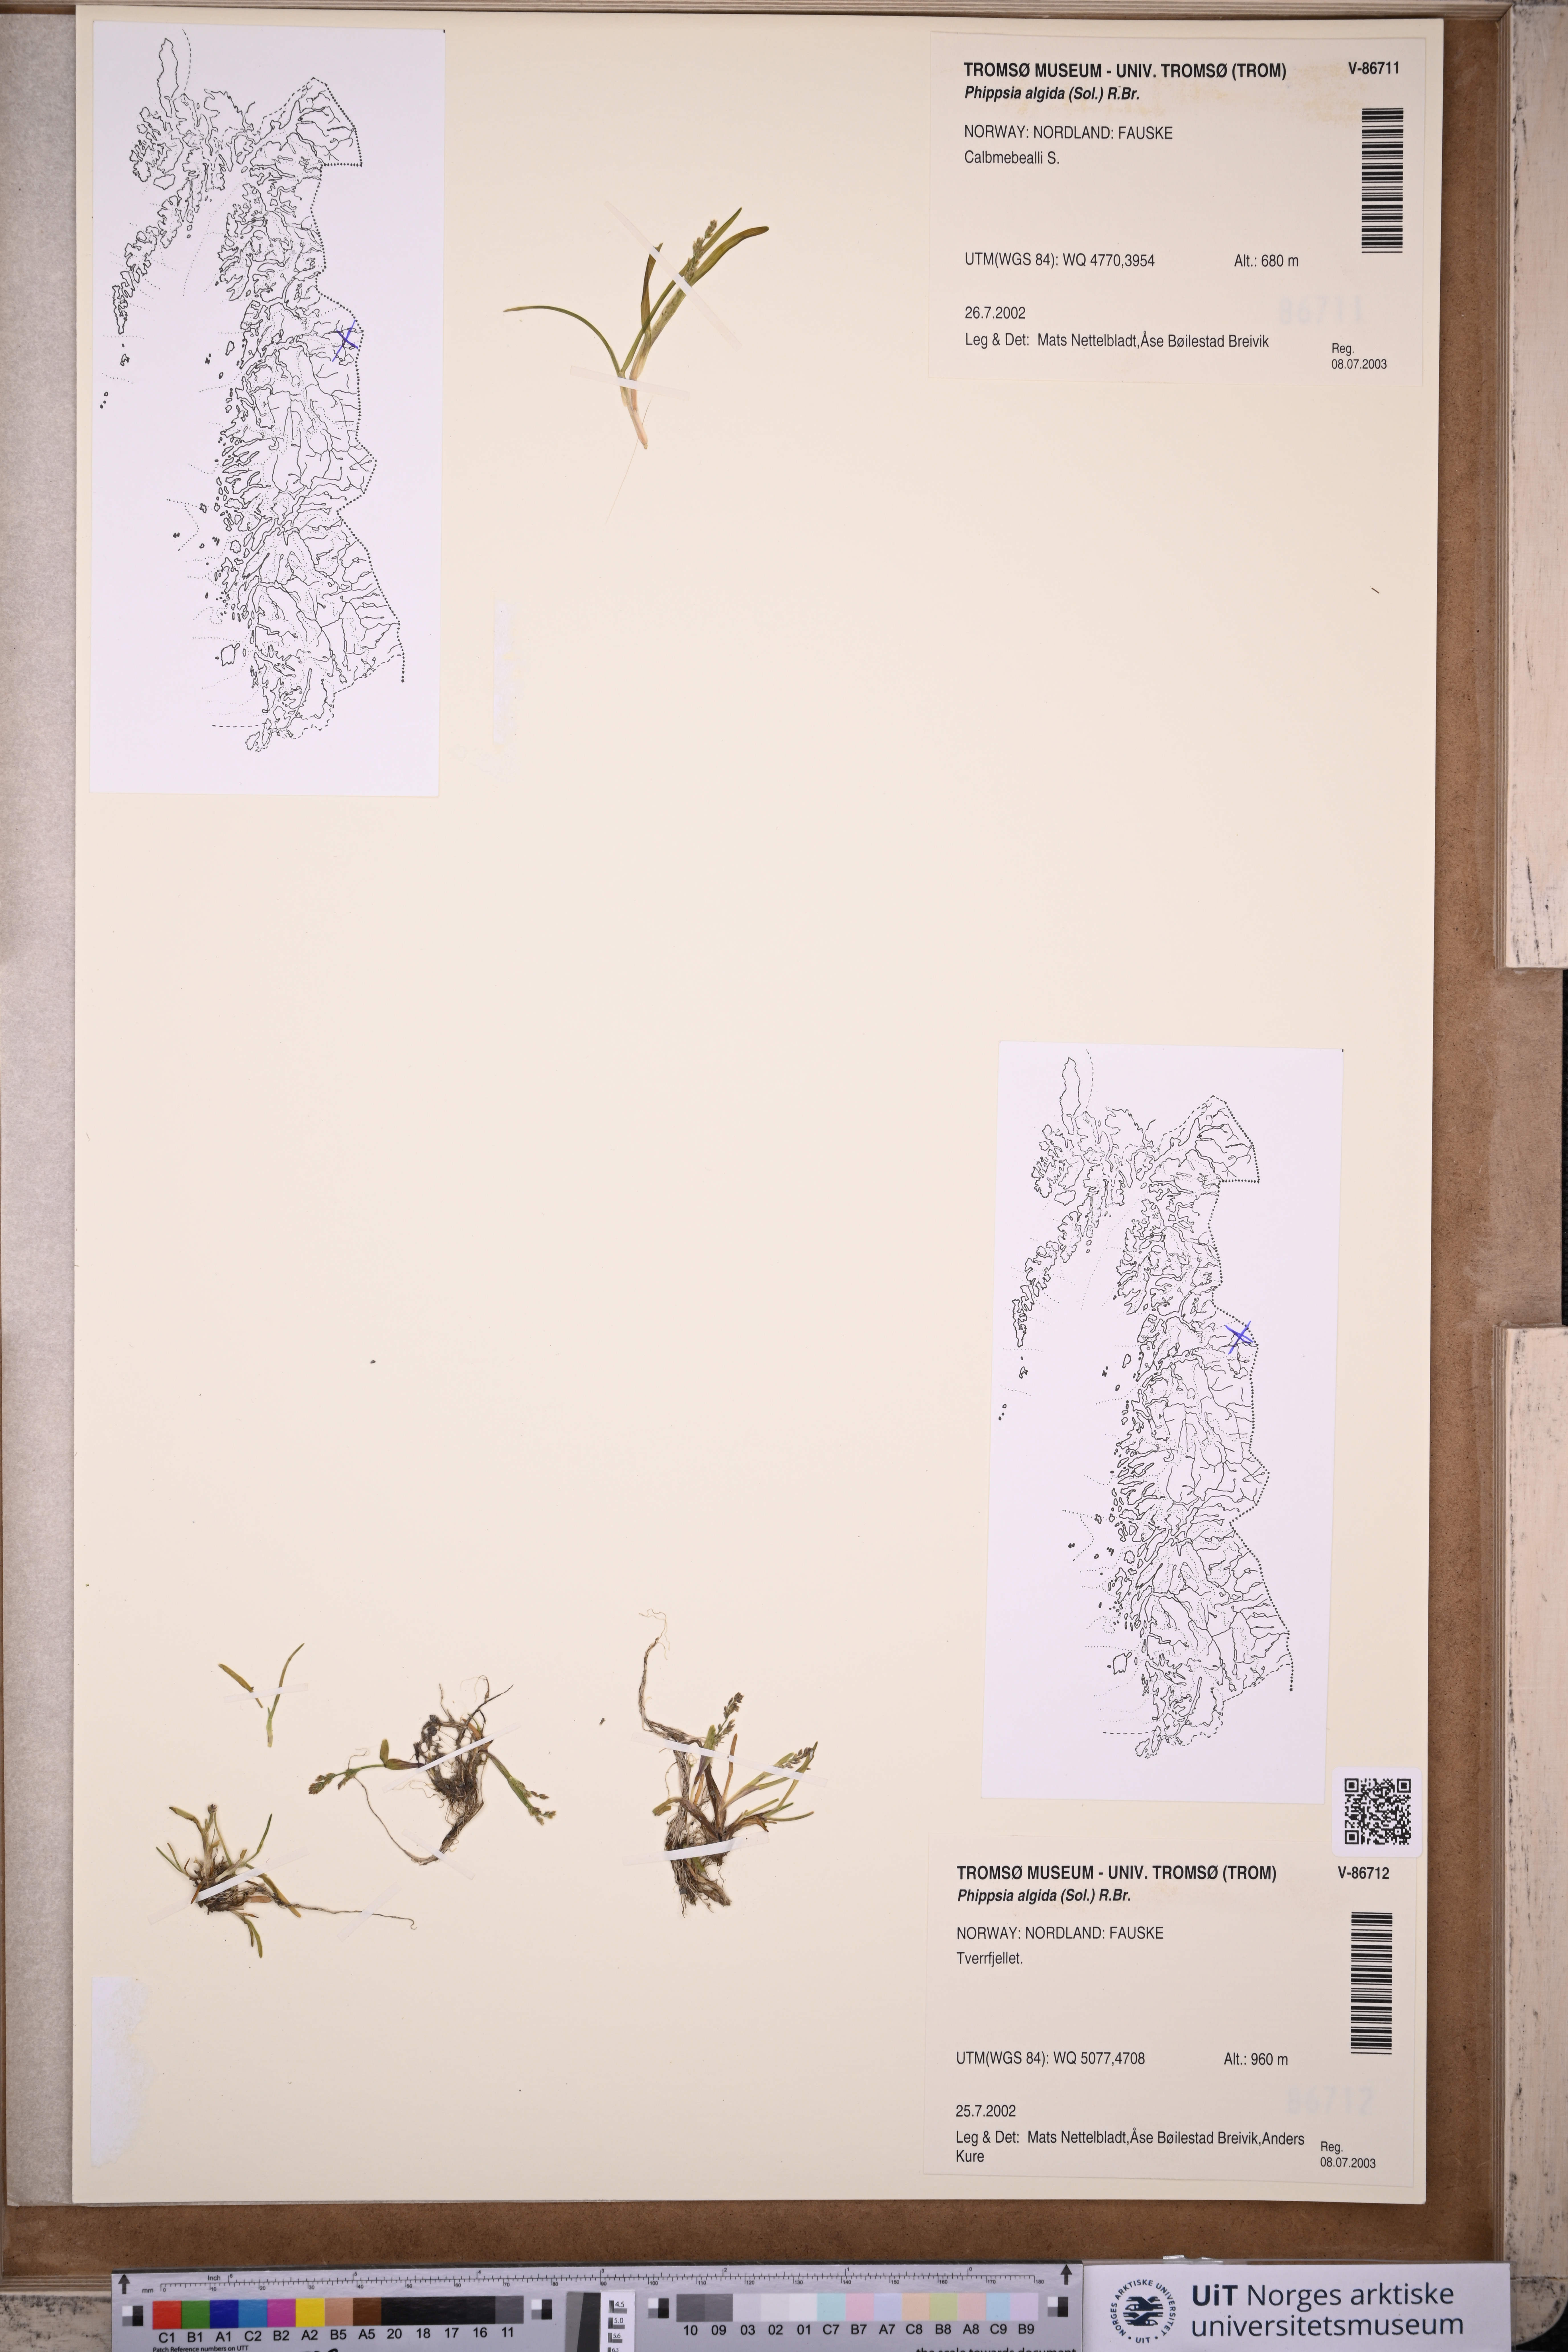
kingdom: Plantae
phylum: Tracheophyta
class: Liliopsida
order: Poales
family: Poaceae
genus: Phippsia
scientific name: Phippsia algida
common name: Ice grass
